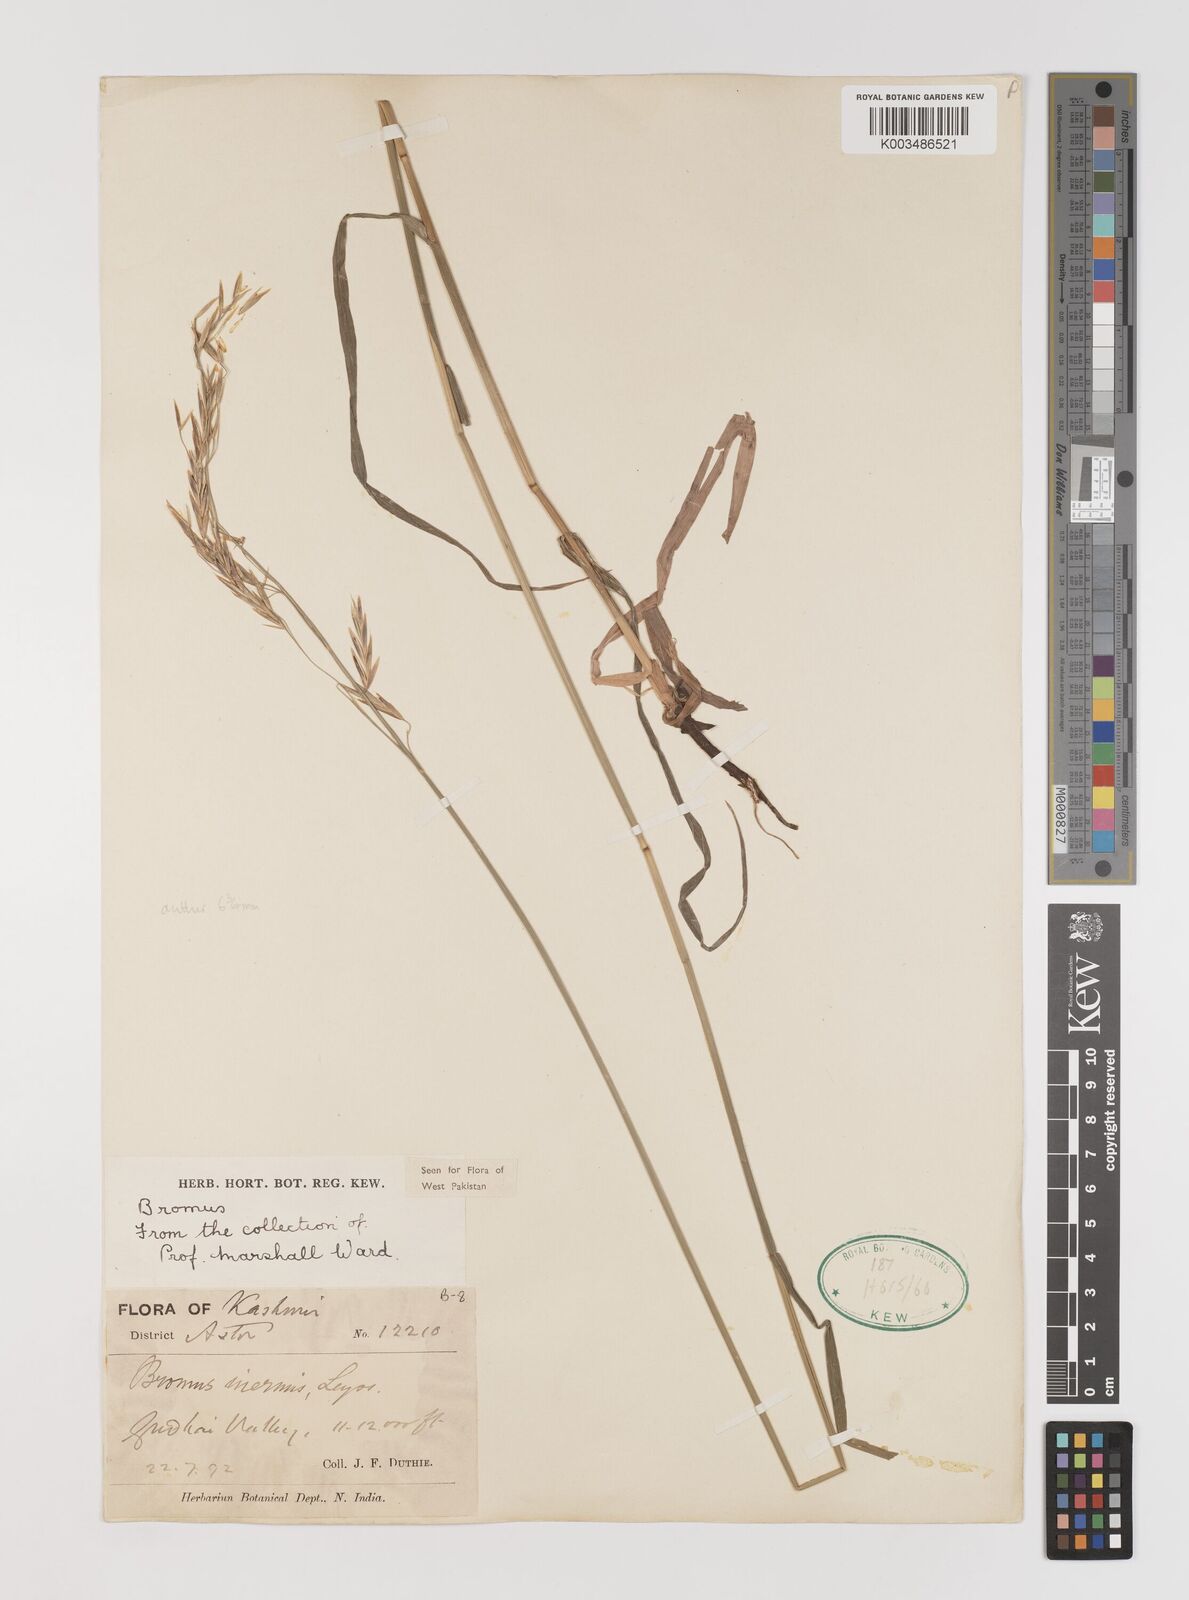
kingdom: Plantae
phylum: Tracheophyta
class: Liliopsida
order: Poales
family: Poaceae
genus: Bromus
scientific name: Bromus inermis
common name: Smooth brome
